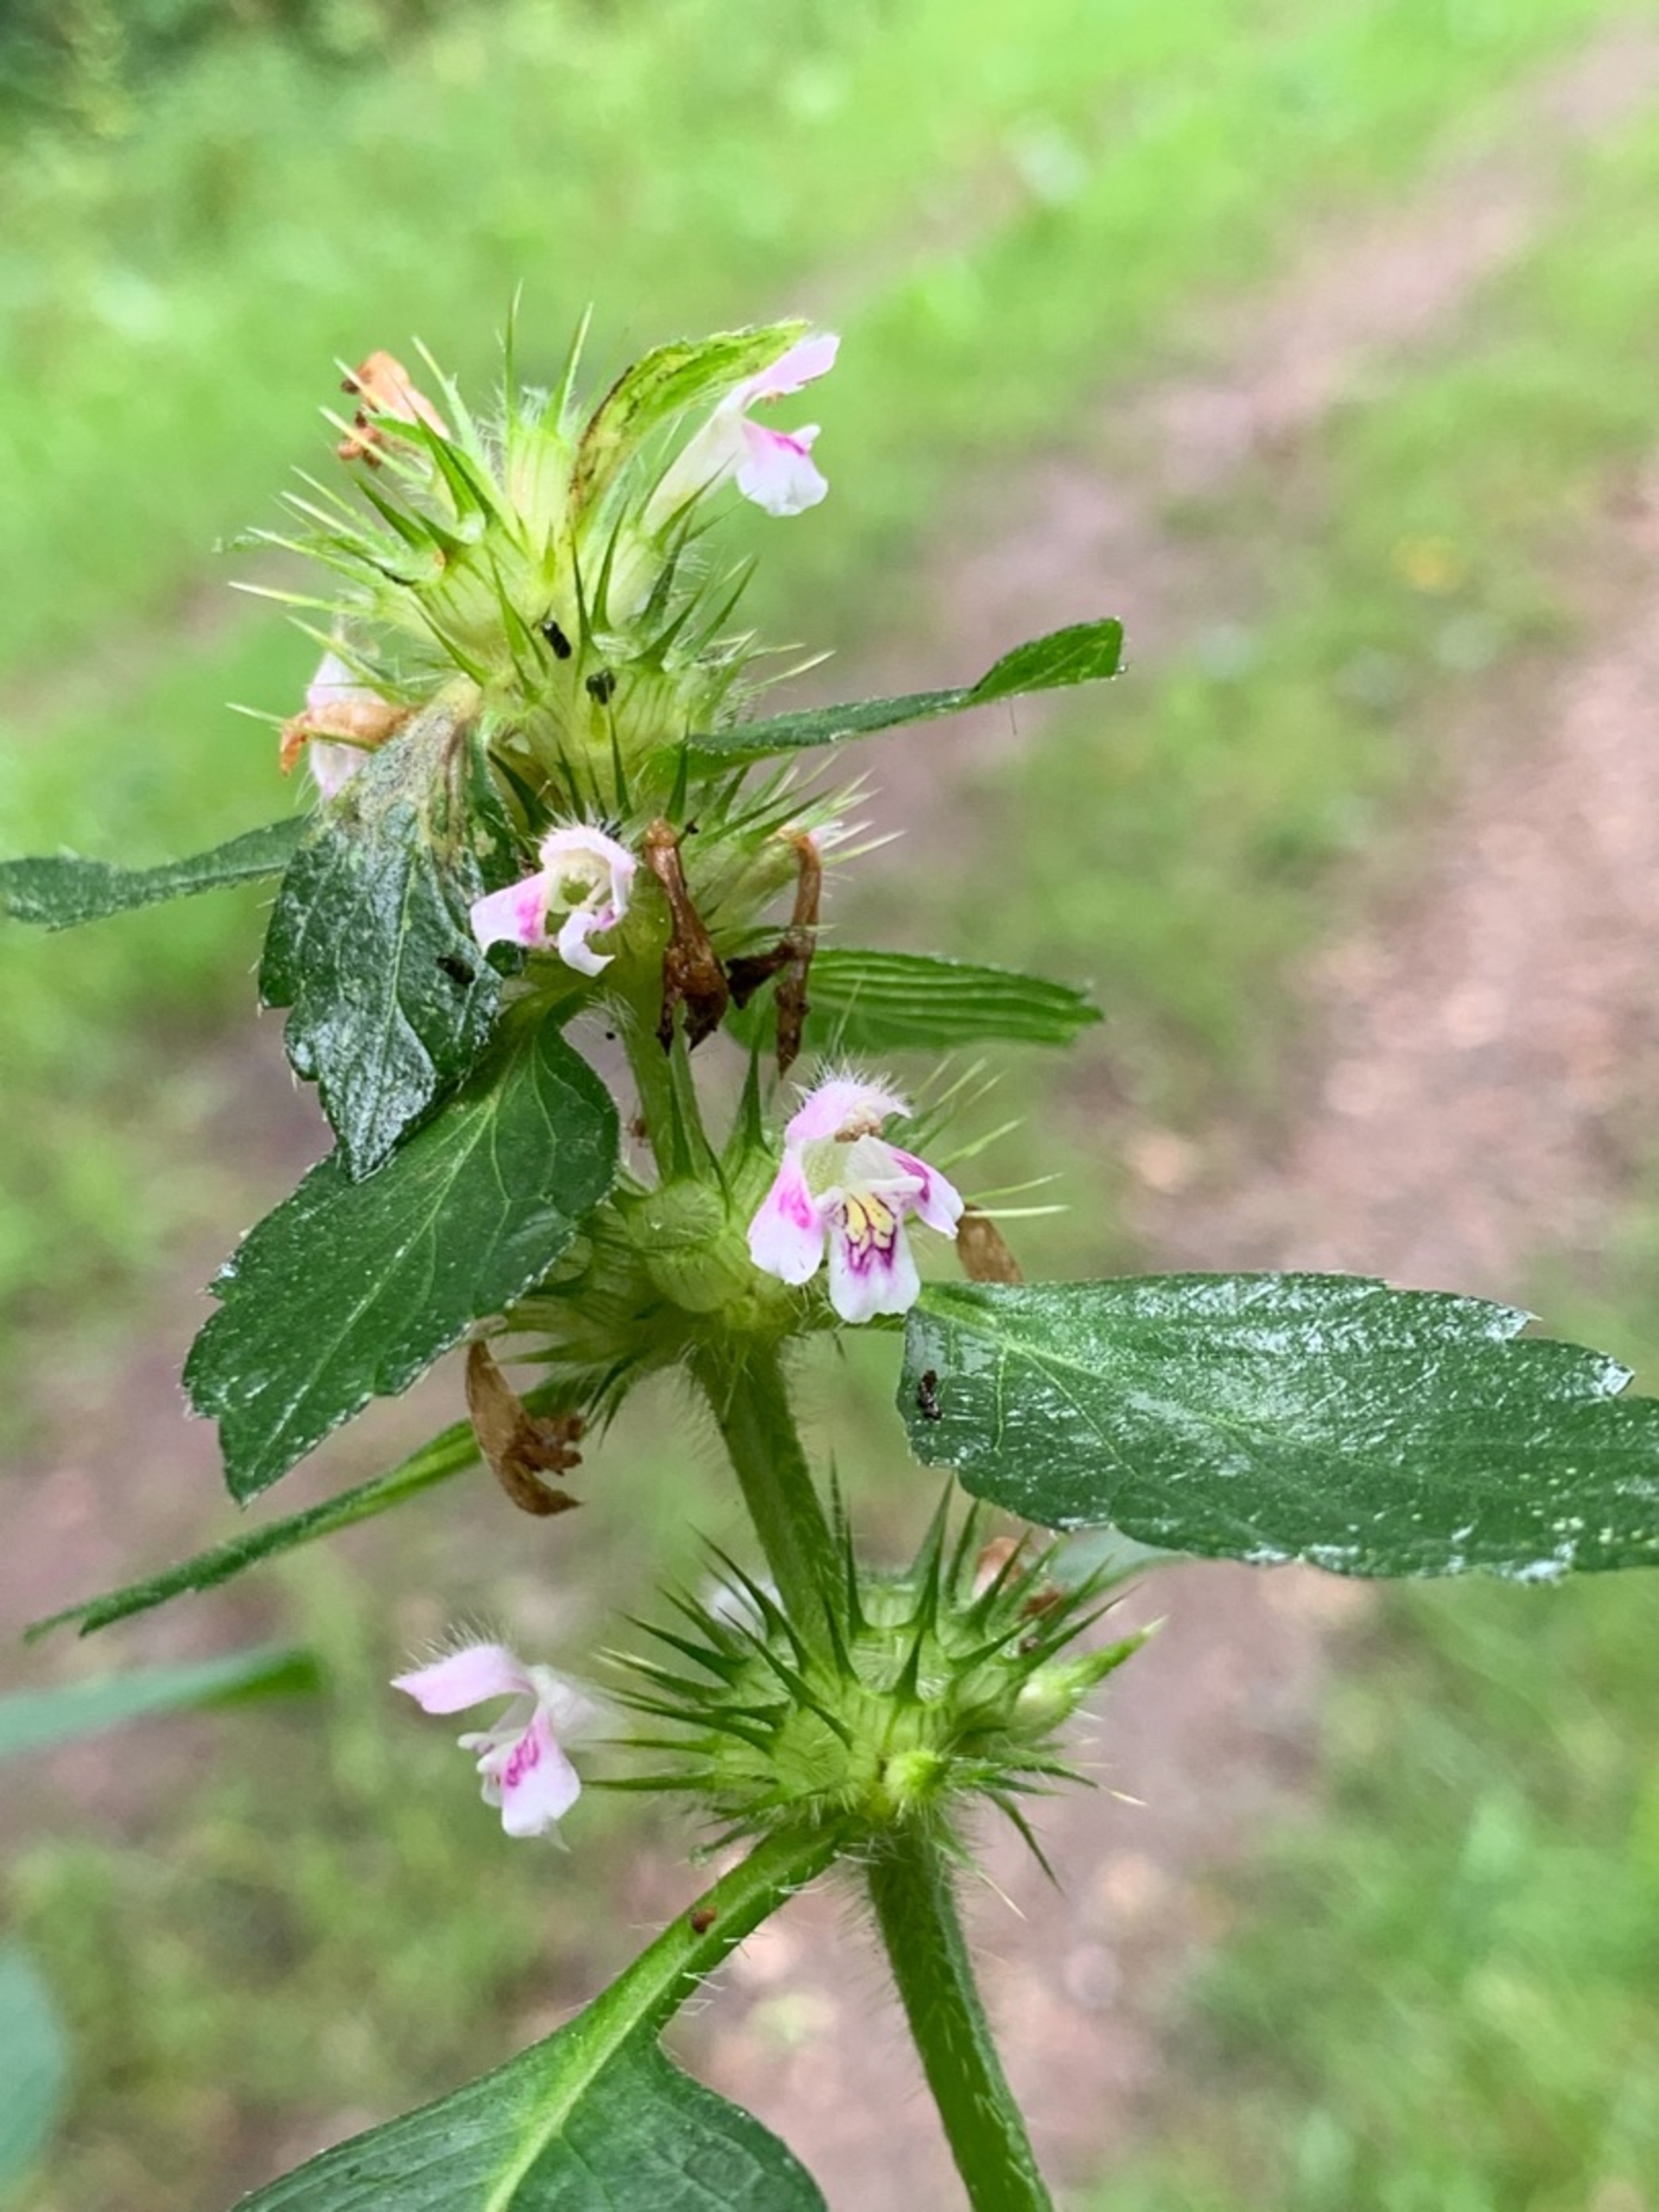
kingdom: Plantae
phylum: Tracheophyta
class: Magnoliopsida
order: Lamiales
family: Lamiaceae
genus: Galeopsis
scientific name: Galeopsis tetrahit
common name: Almindelig hanekro
